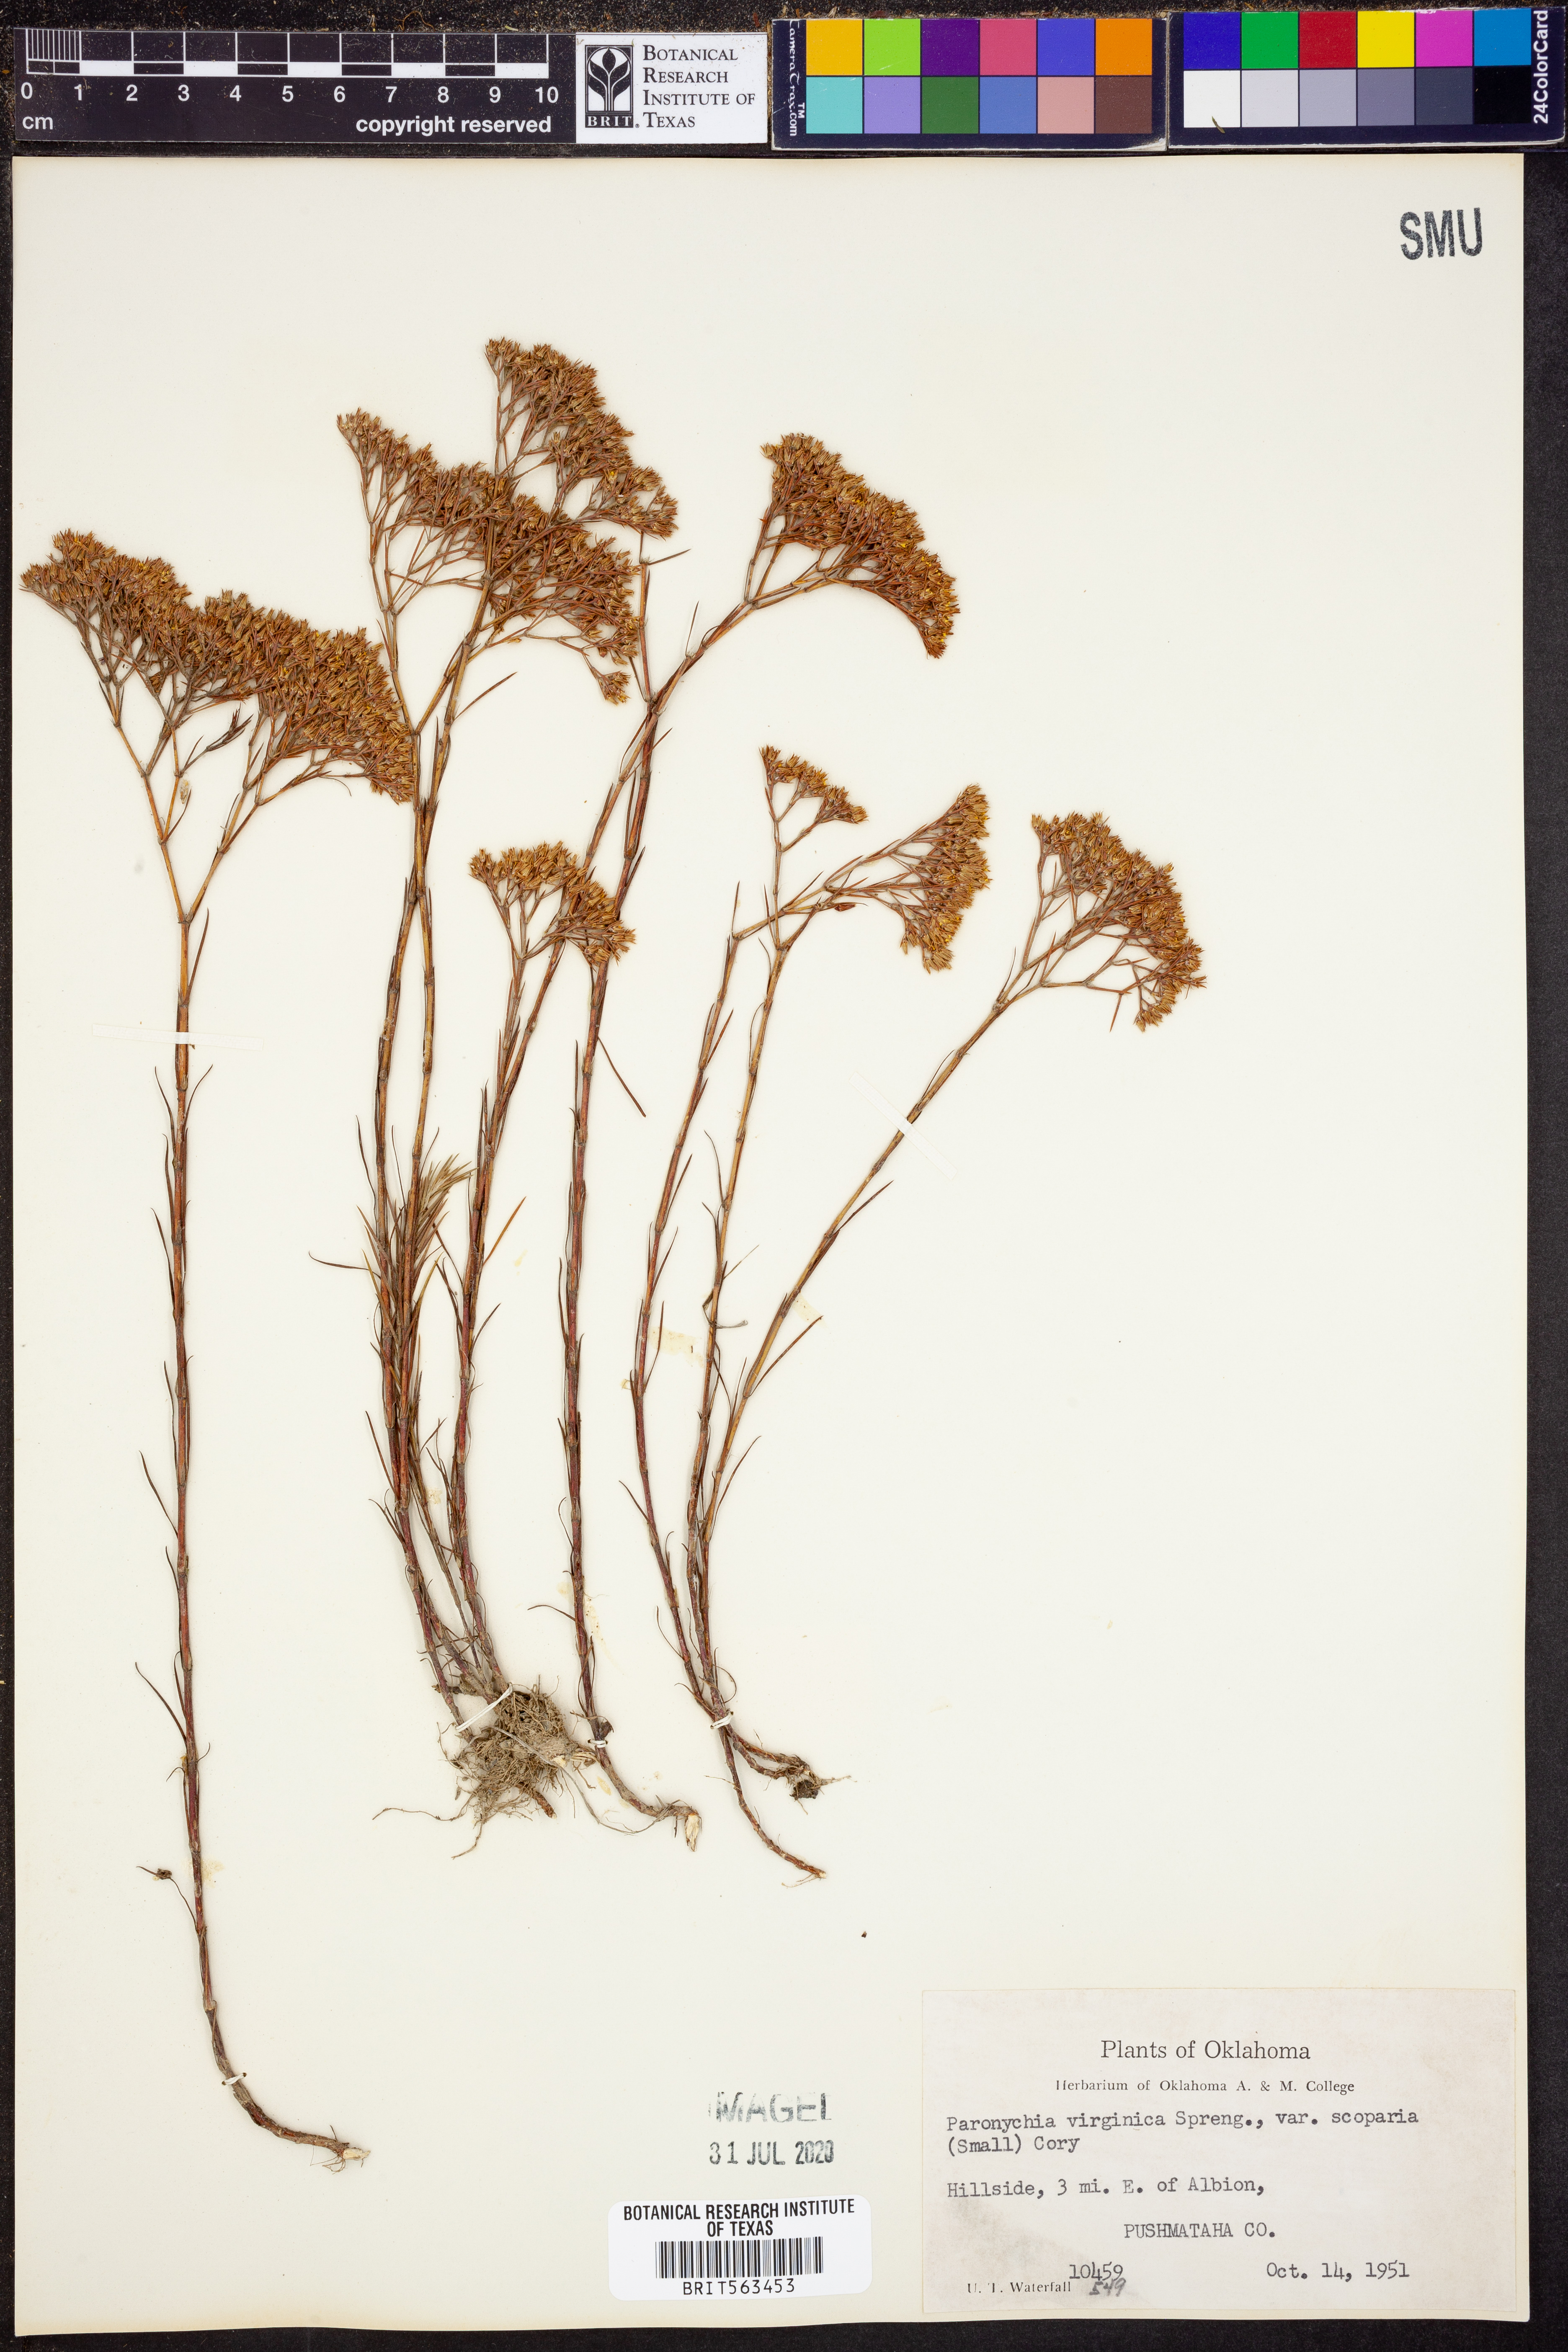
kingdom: Plantae
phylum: Tracheophyta
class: Magnoliopsida
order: Caryophyllales
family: Caryophyllaceae
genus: Paronychia
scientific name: Paronychia virginica
